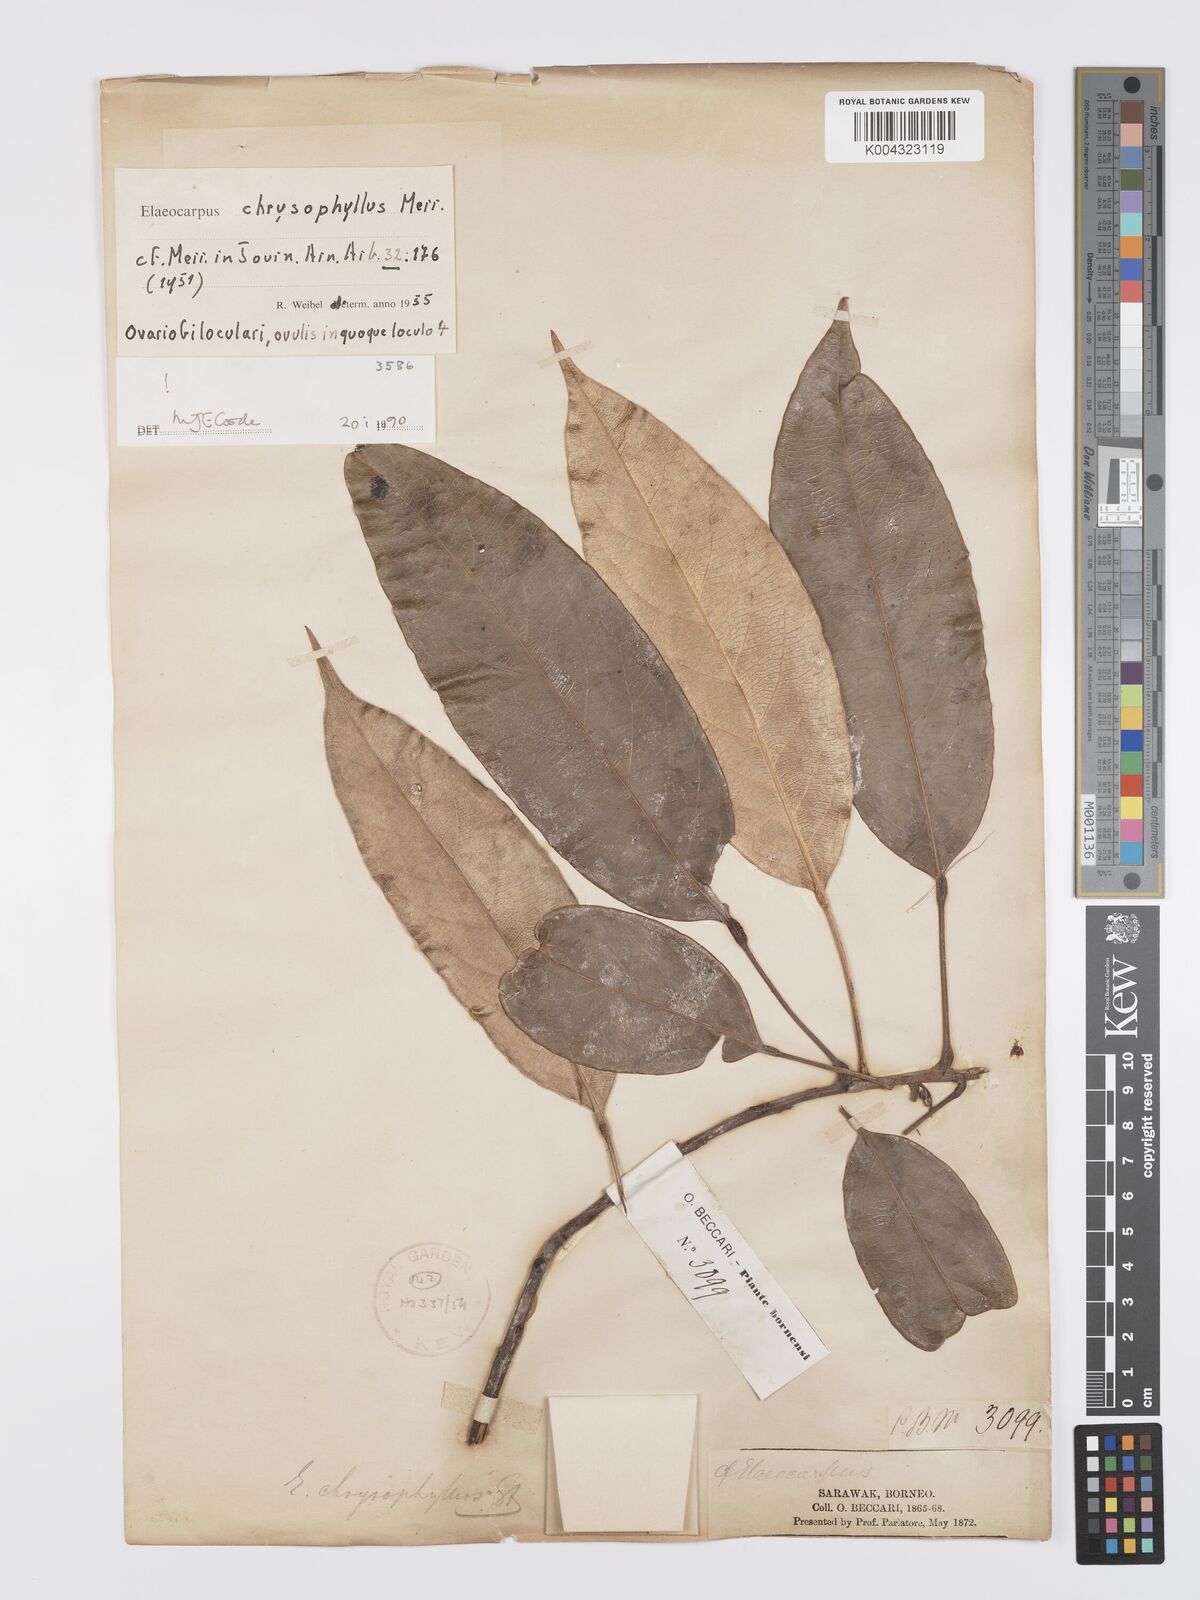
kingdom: Plantae
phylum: Tracheophyta
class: Magnoliopsida
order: Oxalidales
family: Elaeocarpaceae
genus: Elaeocarpus
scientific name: Elaeocarpus chrysophyllus
